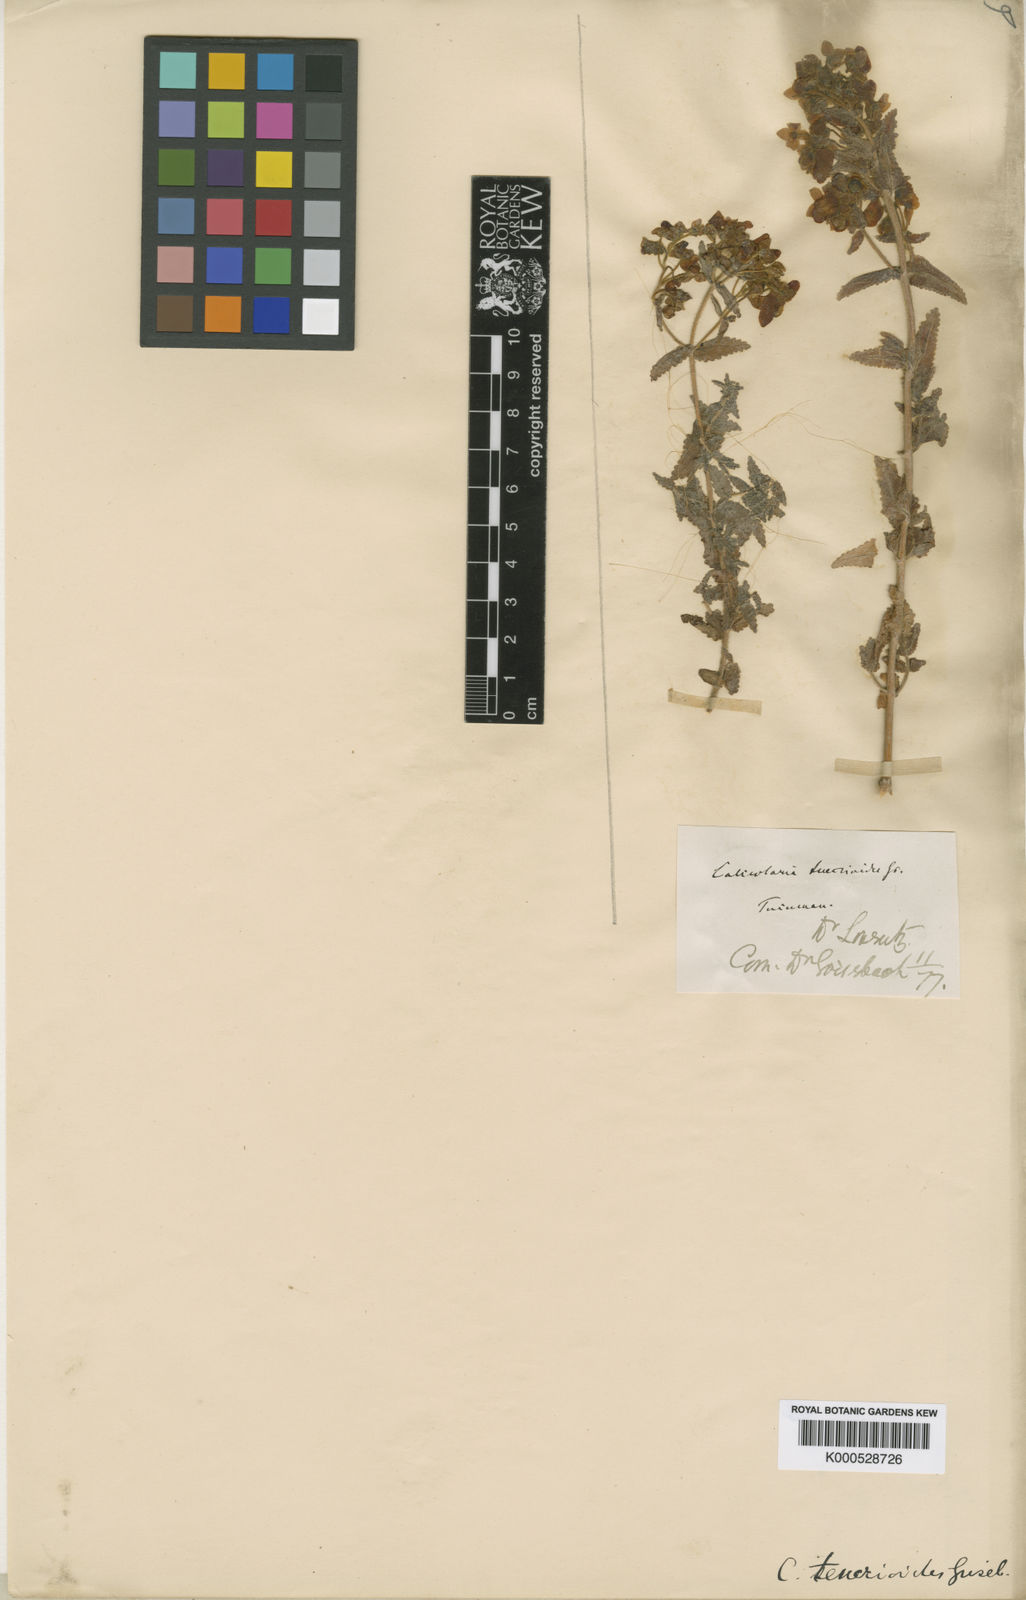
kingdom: Plantae
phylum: Tracheophyta
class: Magnoliopsida
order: Lamiales
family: Calceolariaceae
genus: Calceolaria
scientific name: Calceolaria teucrioides
